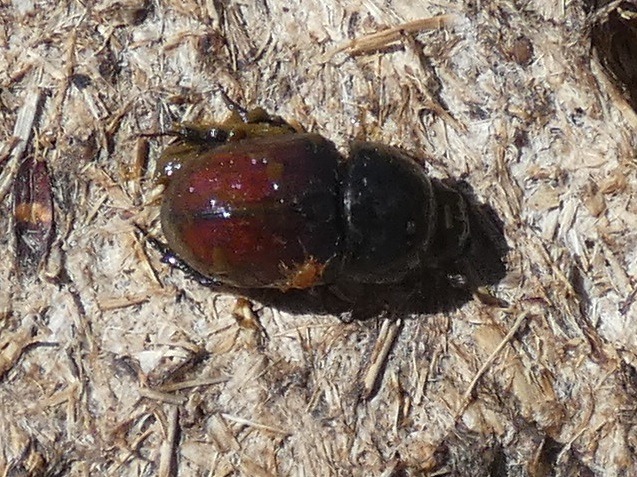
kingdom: Animalia
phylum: Arthropoda
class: Insecta
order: Coleoptera
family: Scarabaeidae
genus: Teuchestes
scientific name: Teuchestes fossor
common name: Stor møgbille
